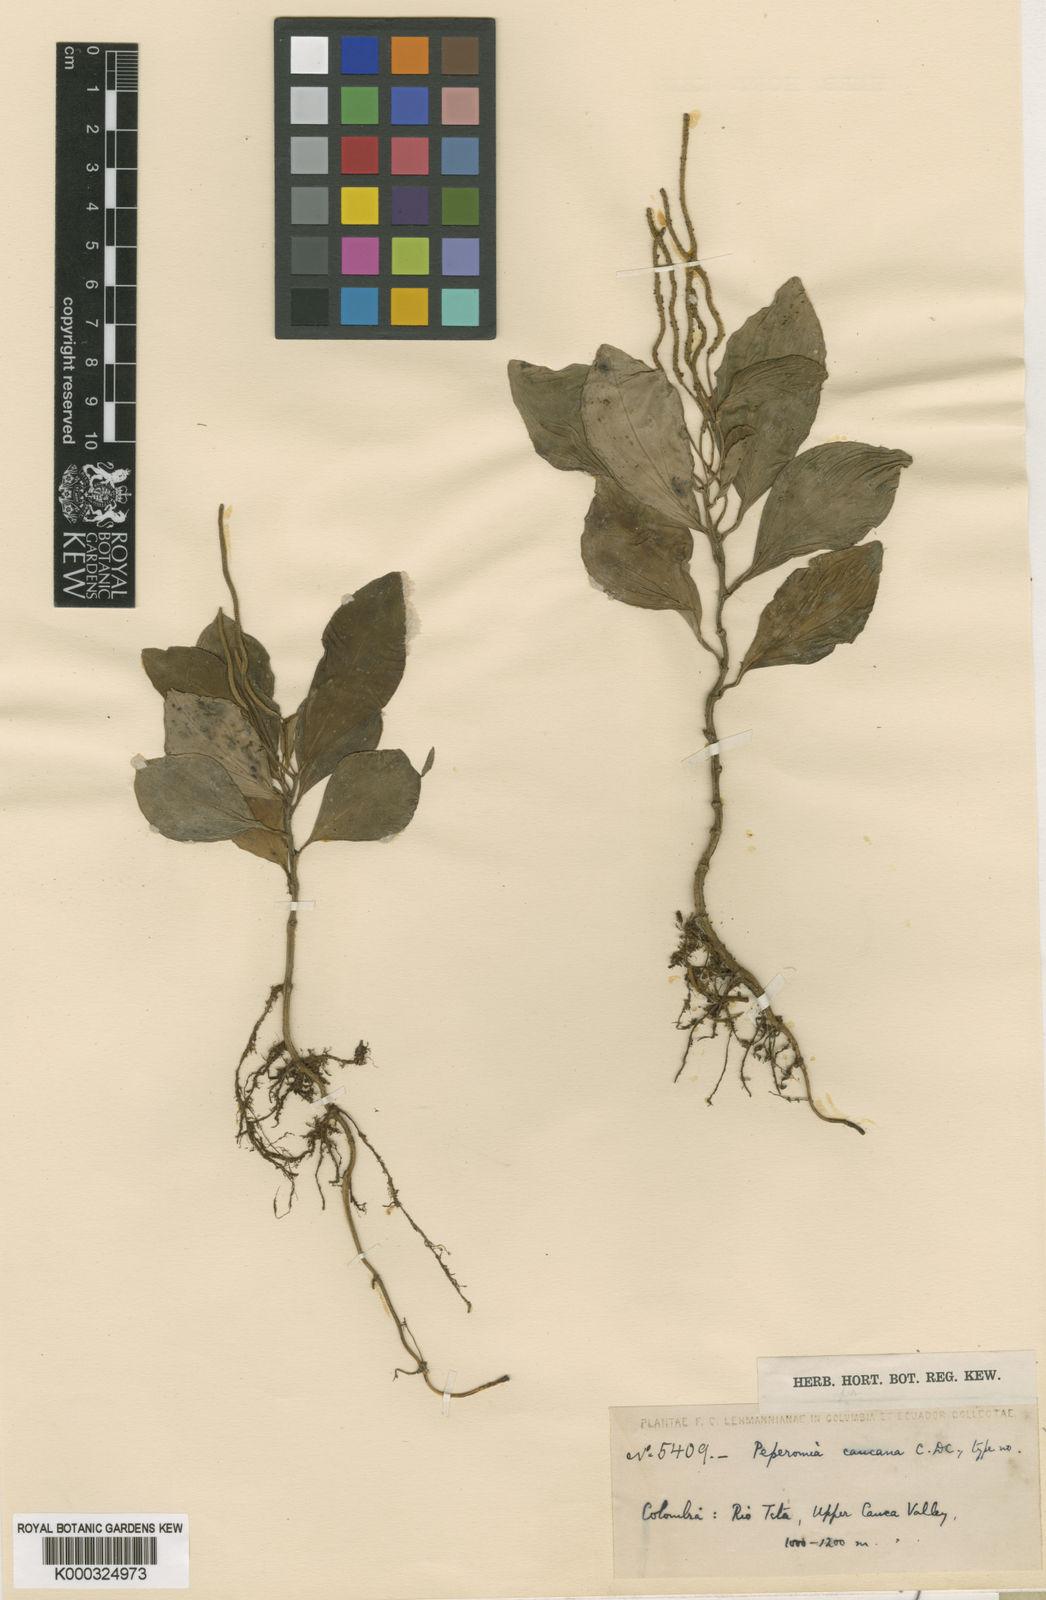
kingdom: Plantae
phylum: Tracheophyta
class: Magnoliopsida
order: Piperales
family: Piperaceae
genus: Peperomia
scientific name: Peperomia succulenta
